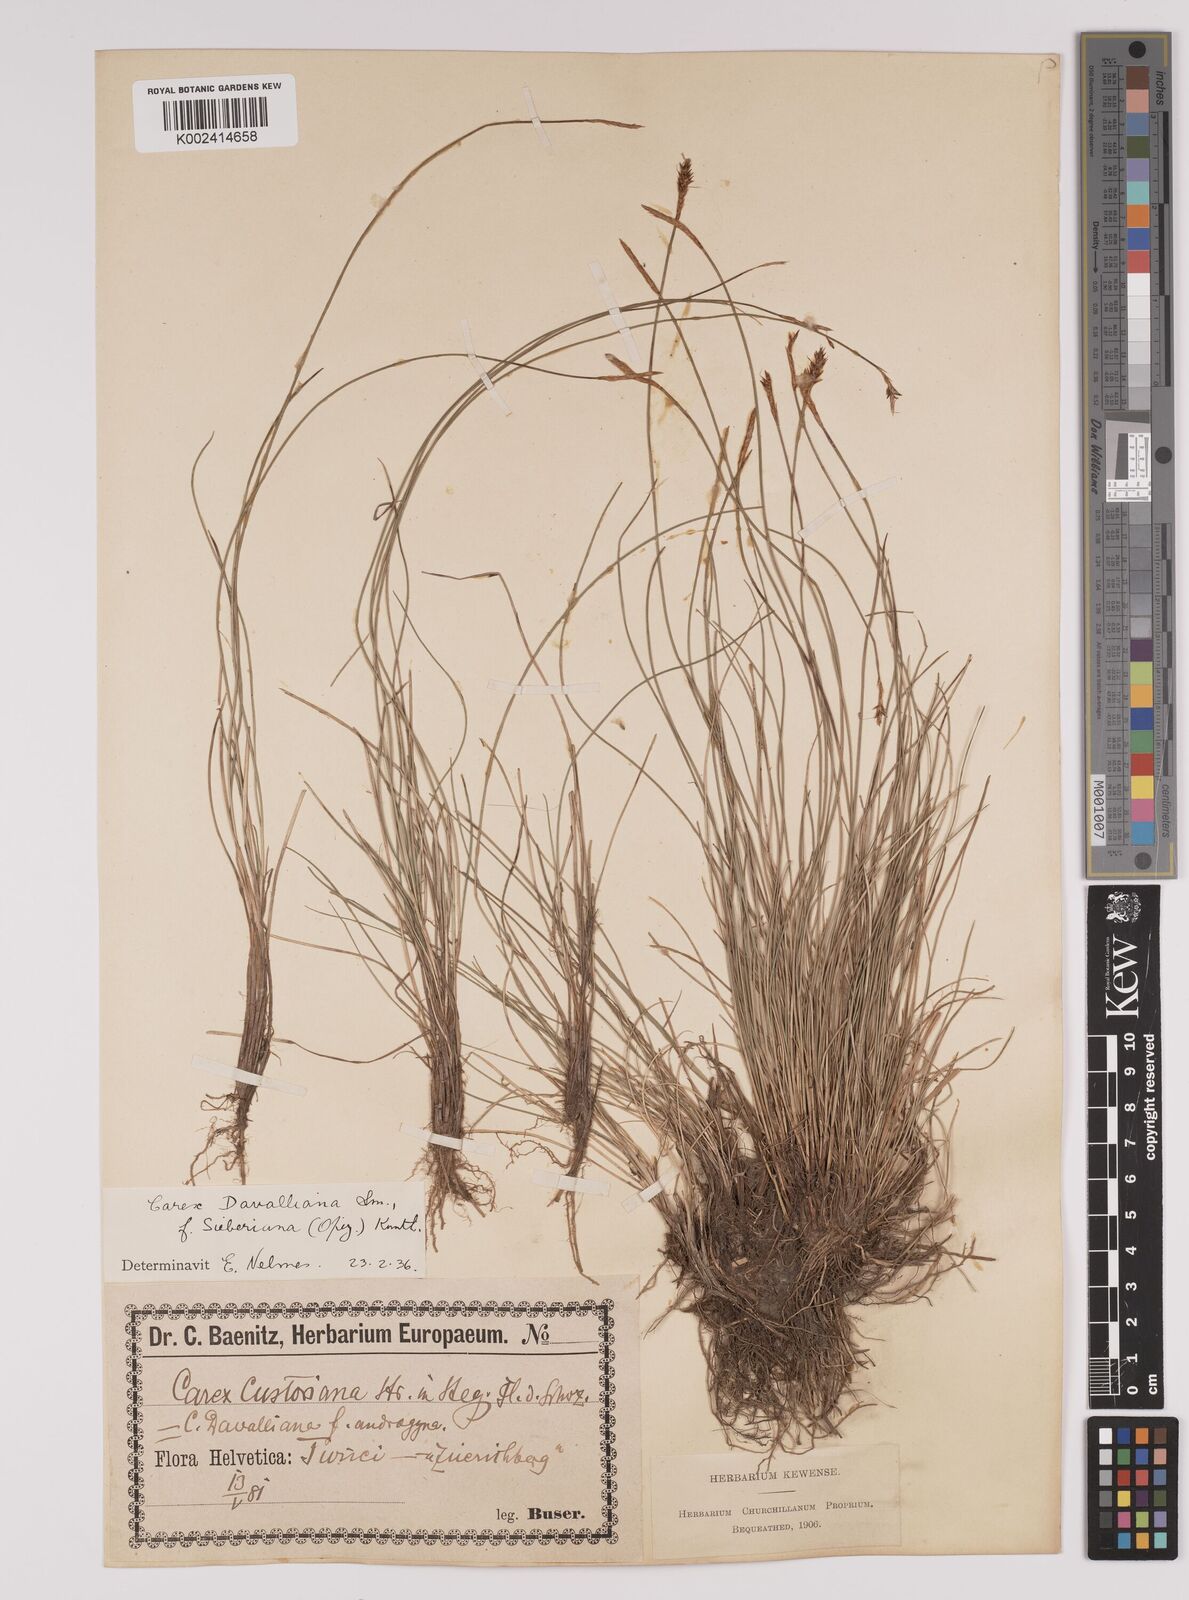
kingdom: Plantae
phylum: Tracheophyta
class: Liliopsida
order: Poales
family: Cyperaceae
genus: Carex
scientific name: Carex davalliana
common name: Davall's sedge
